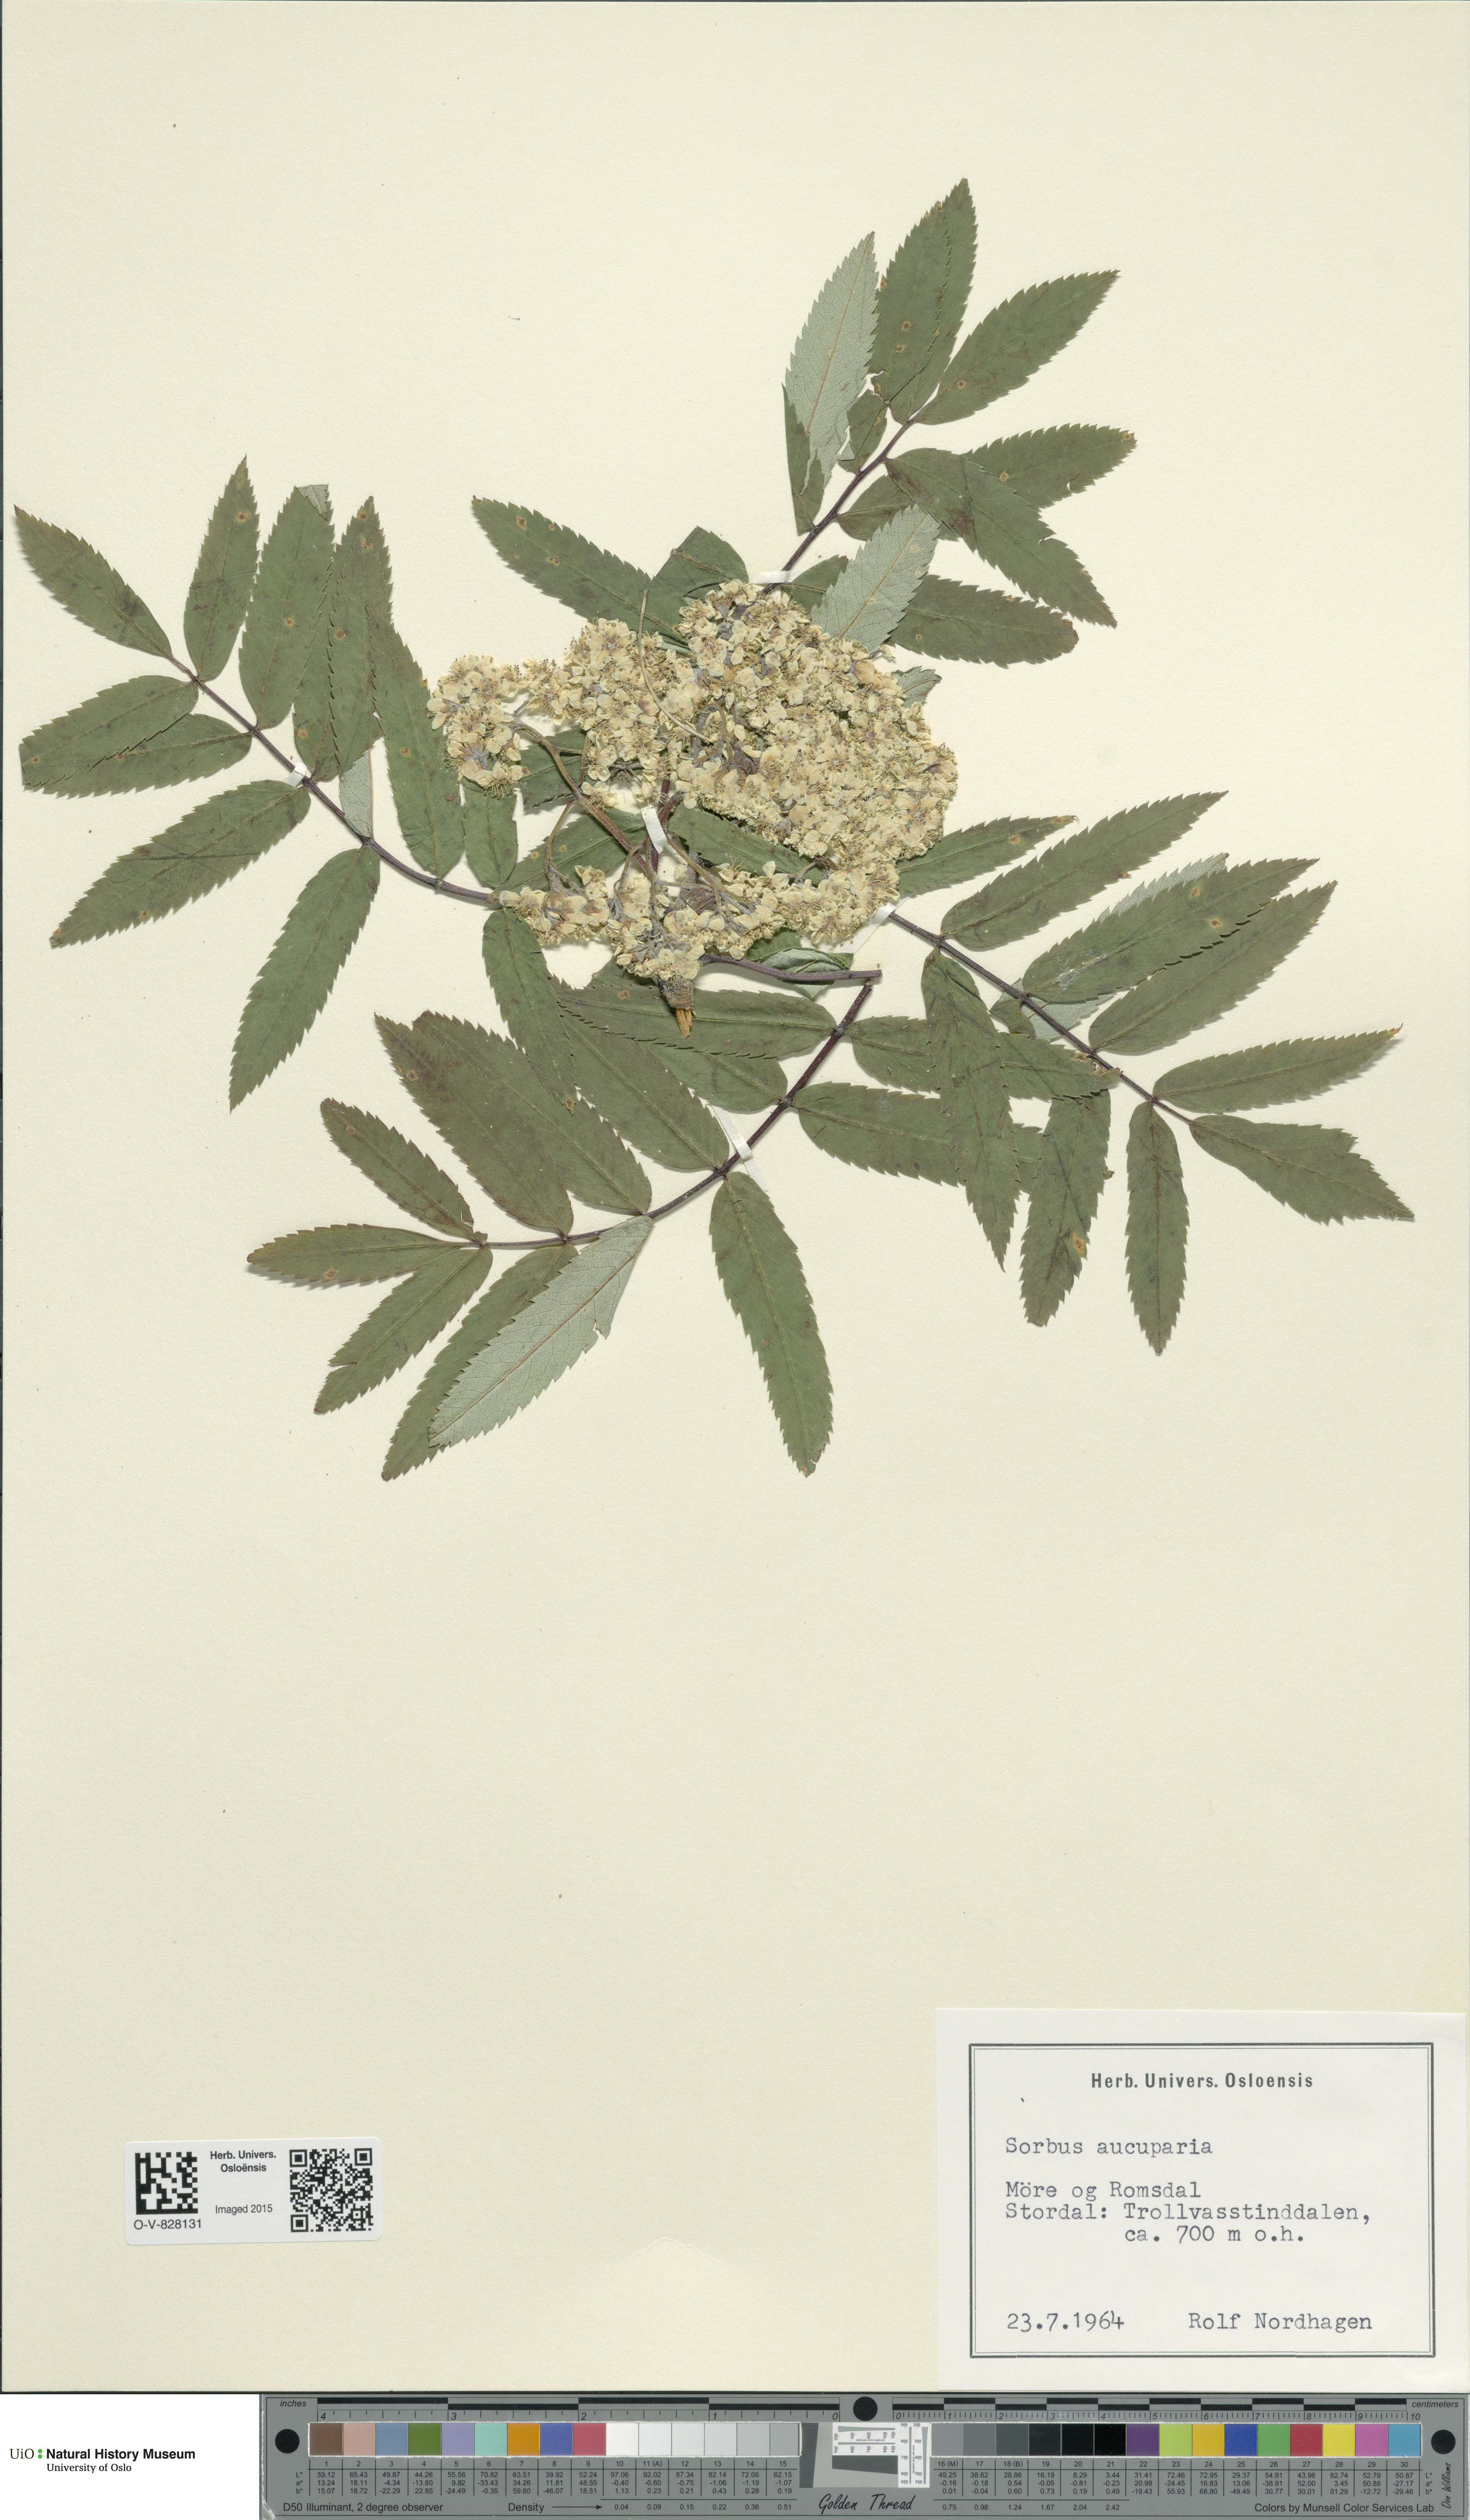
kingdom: Plantae
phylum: Tracheophyta
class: Magnoliopsida
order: Rosales
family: Rosaceae
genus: Sorbus
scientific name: Sorbus aucuparia
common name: Rowan
